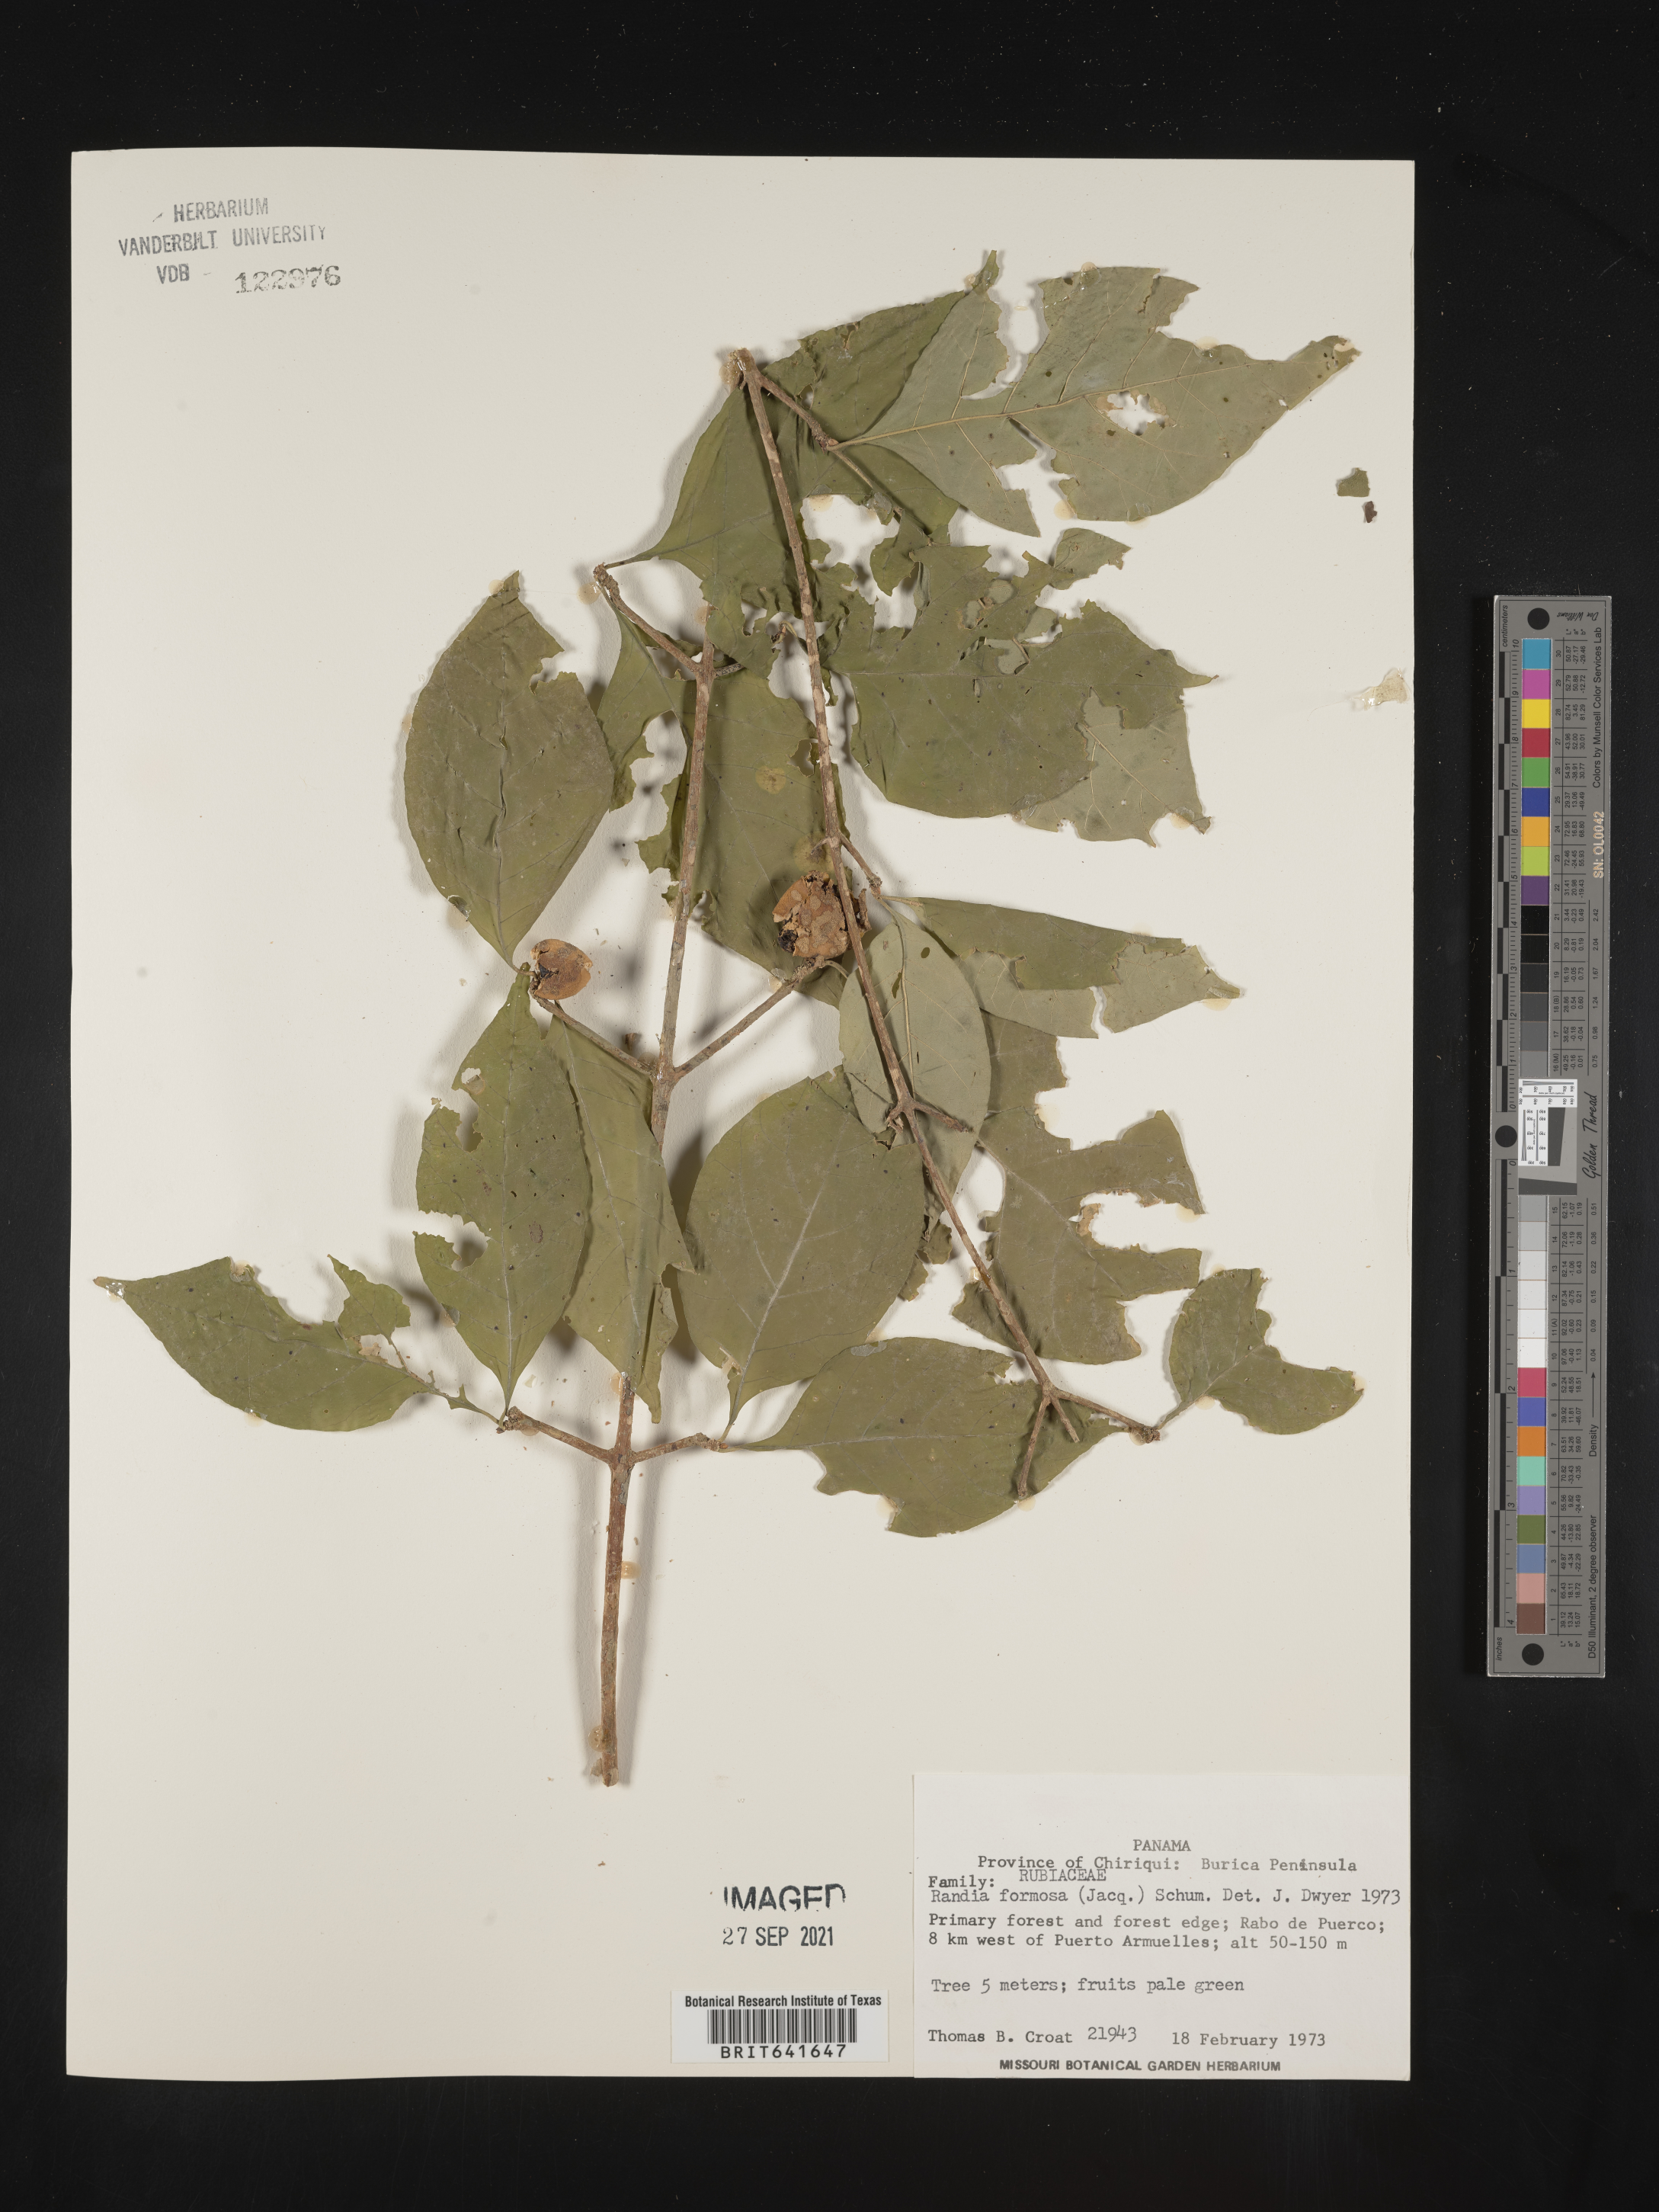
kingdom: Plantae
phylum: Tracheophyta
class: Magnoliopsida
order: Gentianales
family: Rubiaceae
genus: Randia
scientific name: Randia
